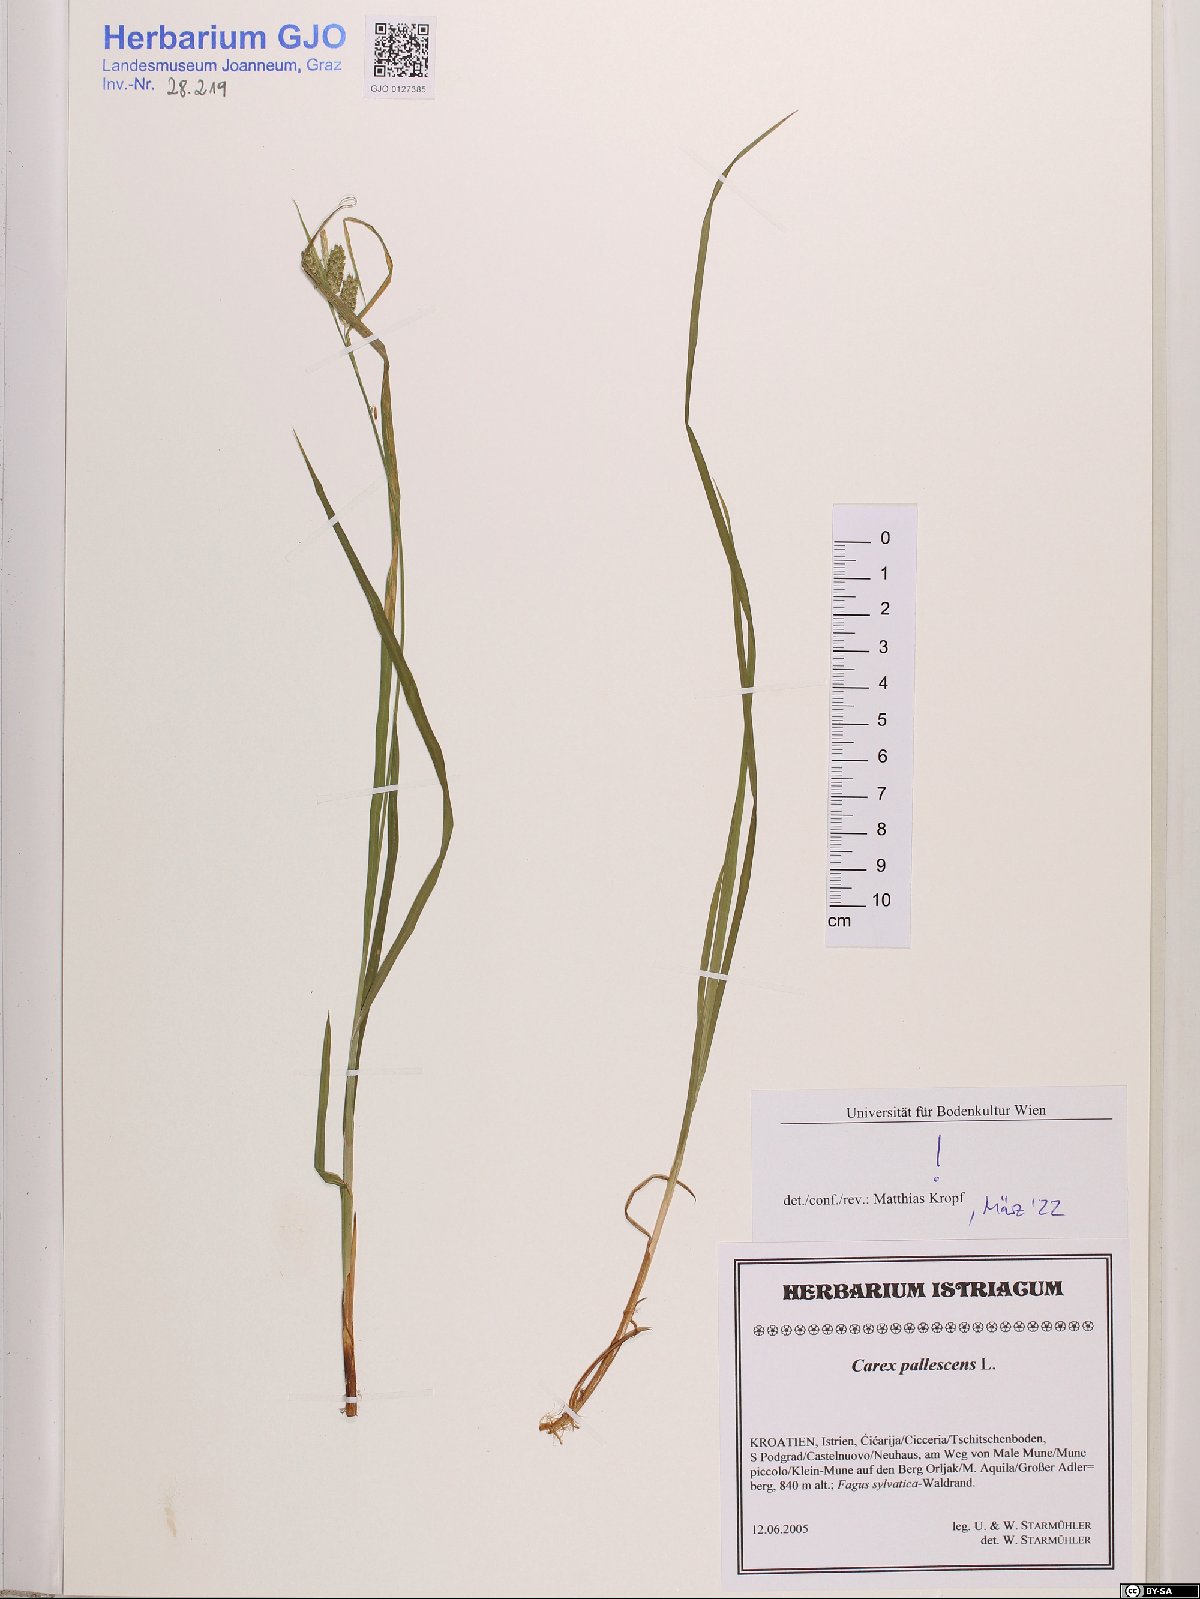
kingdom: Plantae
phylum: Tracheophyta
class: Liliopsida
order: Poales
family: Cyperaceae
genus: Carex
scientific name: Carex pallescens
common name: Pale sedge
